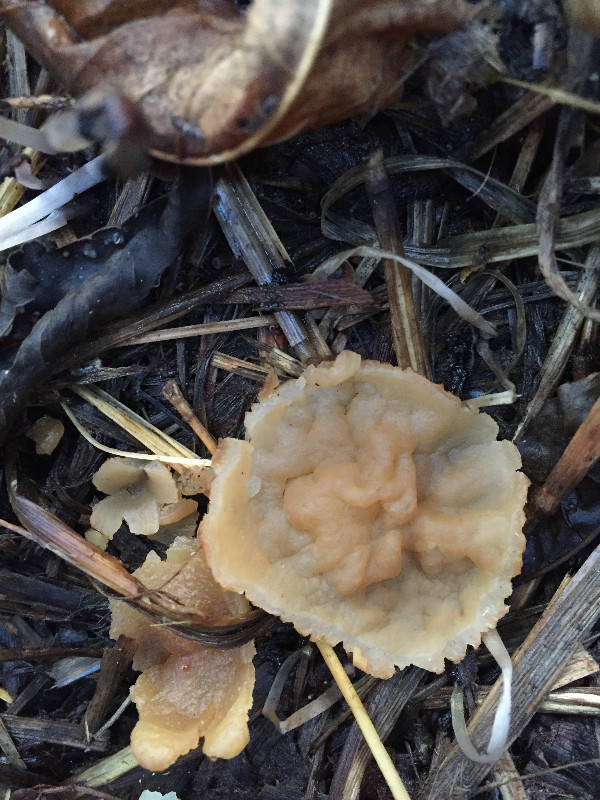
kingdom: Fungi
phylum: Ascomycota
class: Pezizomycetes
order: Pezizales
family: Pezizaceae
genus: Peziza
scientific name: Peziza vesiculosa
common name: blære-bægersvamp
